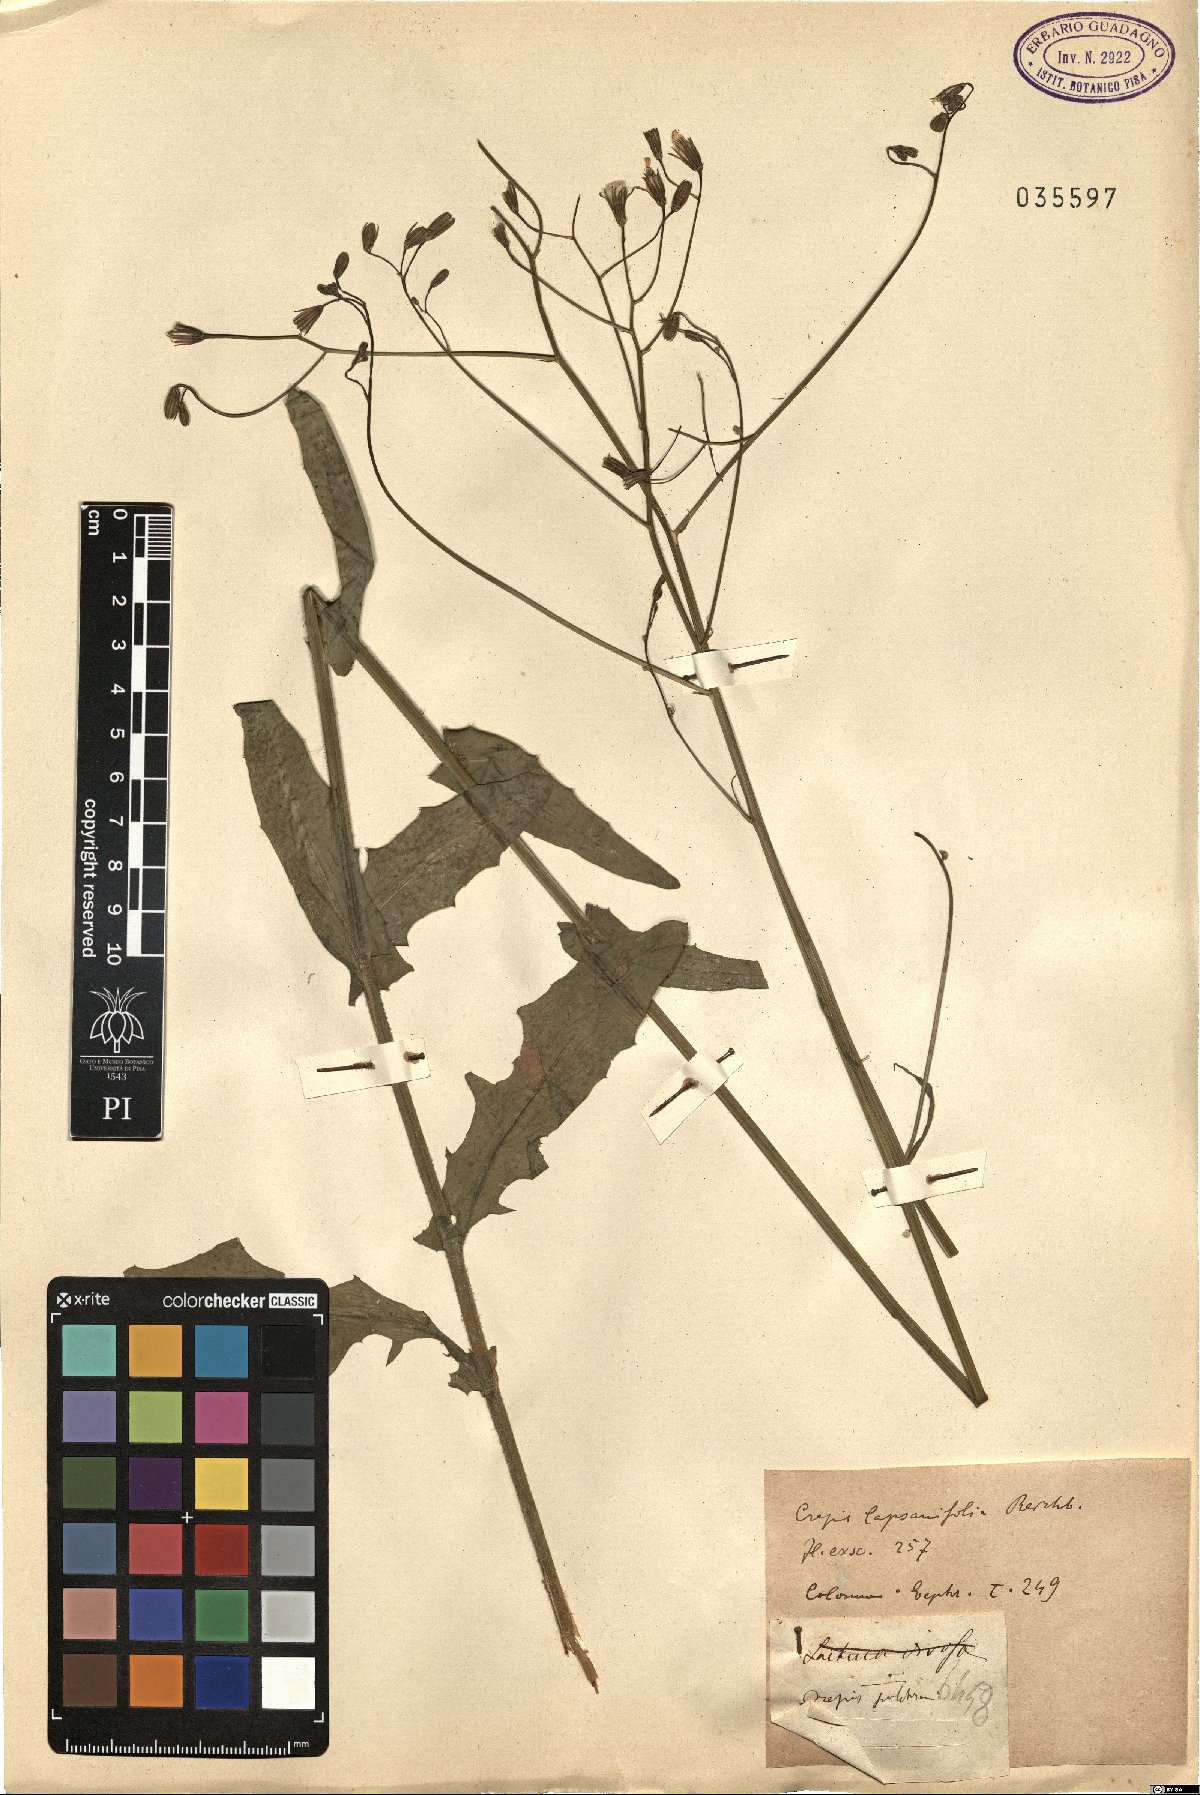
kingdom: Plantae
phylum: Tracheophyta
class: Magnoliopsida
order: Asterales
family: Asteraceae
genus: Crepis
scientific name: Crepis pulchra
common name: Hawk's-beard
